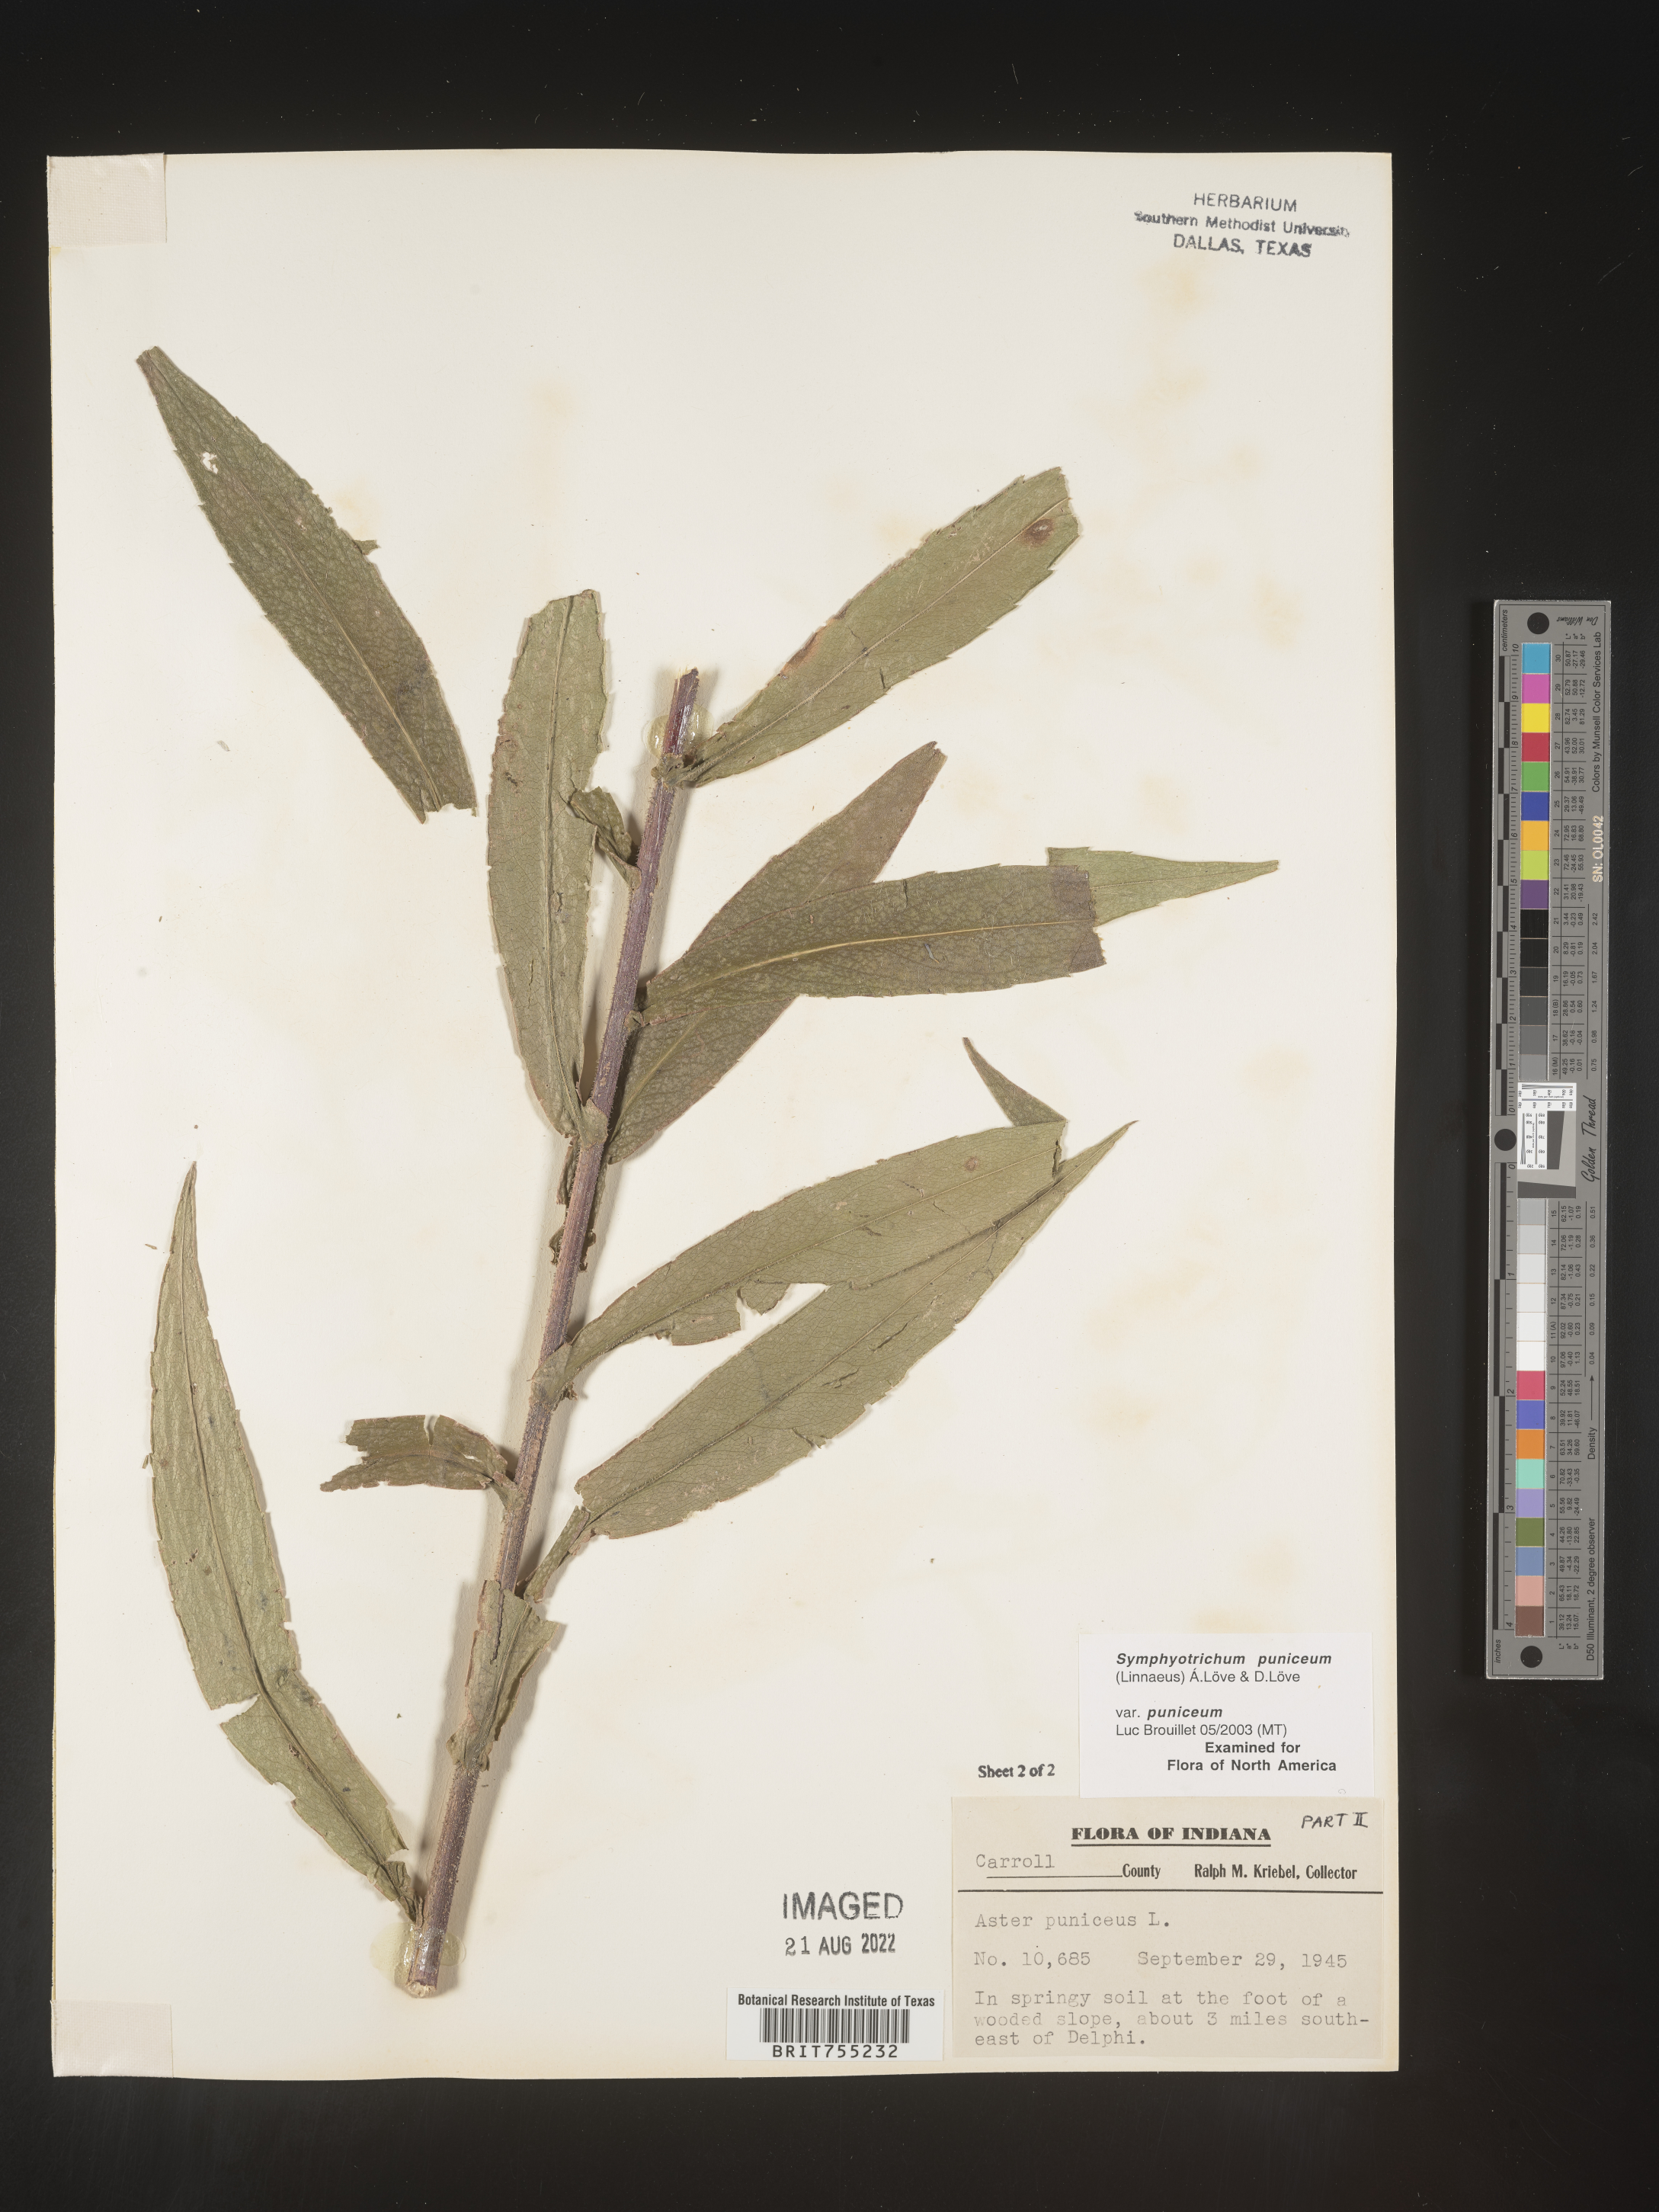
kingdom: Plantae
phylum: Tracheophyta
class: Magnoliopsida
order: Asterales
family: Asteraceae
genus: Symphyotrichum
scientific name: Symphyotrichum puniceum
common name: Bog aster
